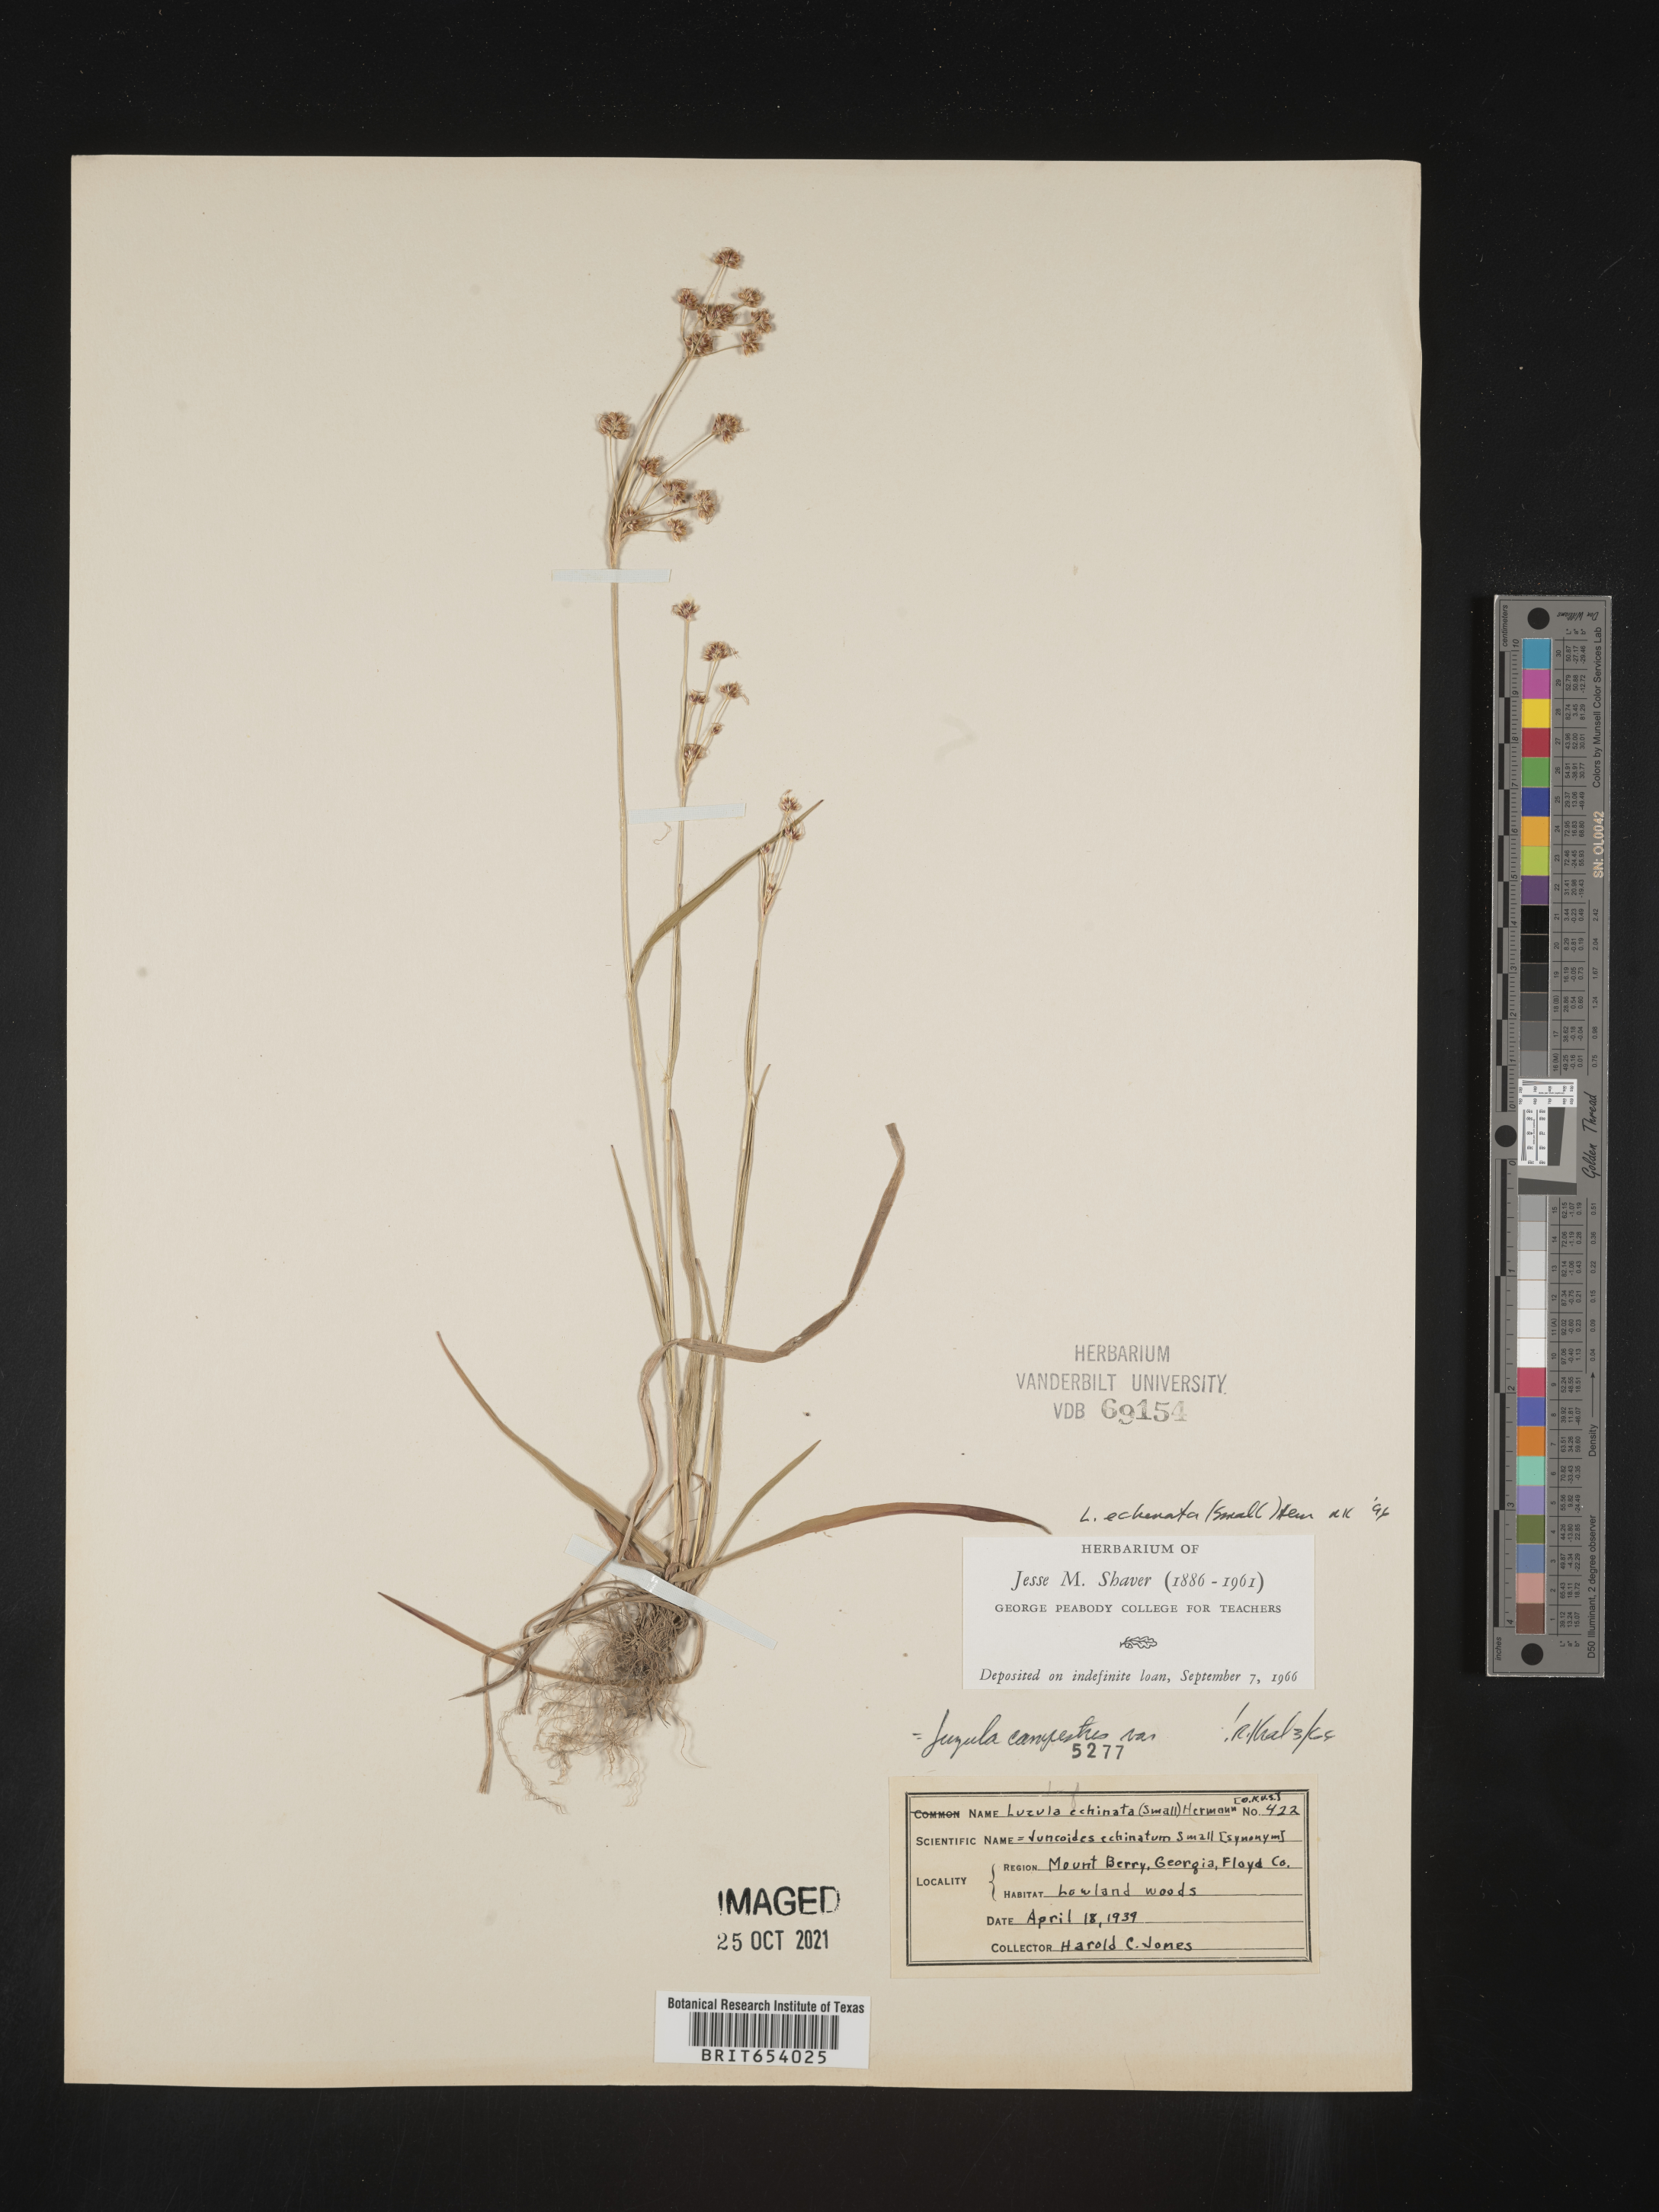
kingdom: Plantae
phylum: Tracheophyta
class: Liliopsida
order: Poales
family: Juncaceae
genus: Luzula
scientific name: Luzula echinata
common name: Hedgehog woodrush
